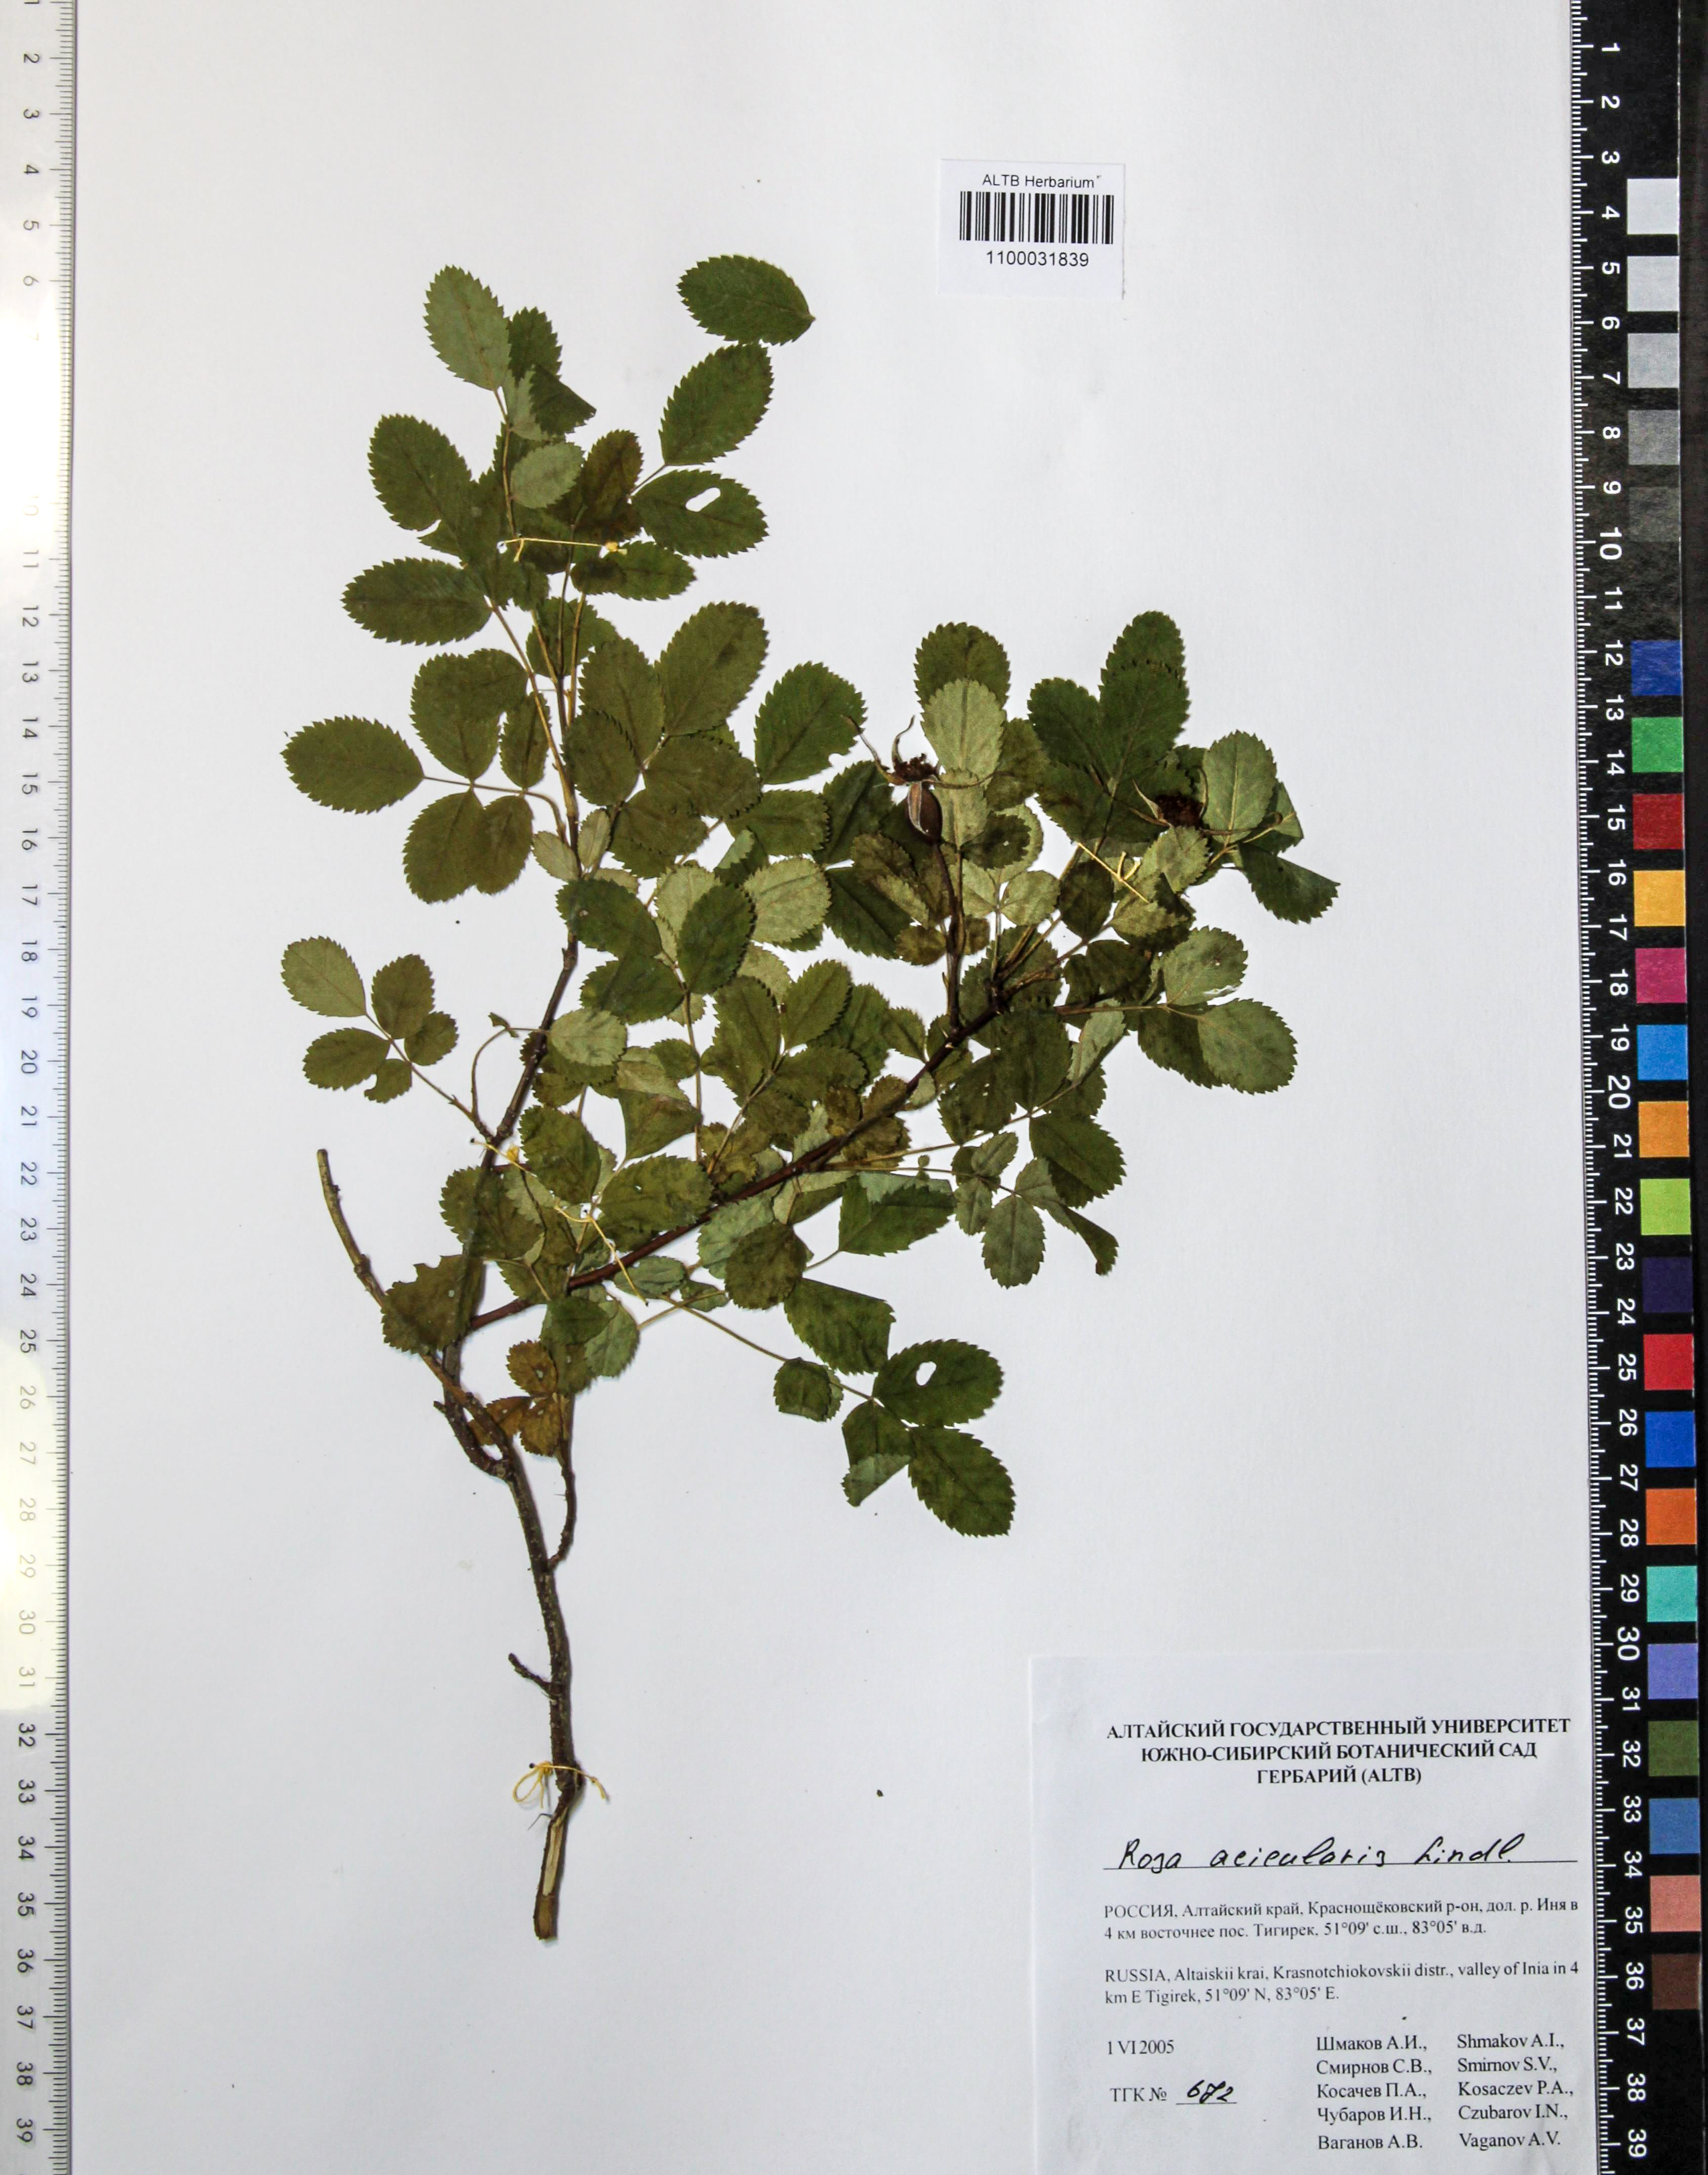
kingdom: Plantae
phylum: Tracheophyta
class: Magnoliopsida
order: Rosales
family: Rosaceae
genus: Rosa
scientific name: Rosa acicularis
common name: Prickly rose
